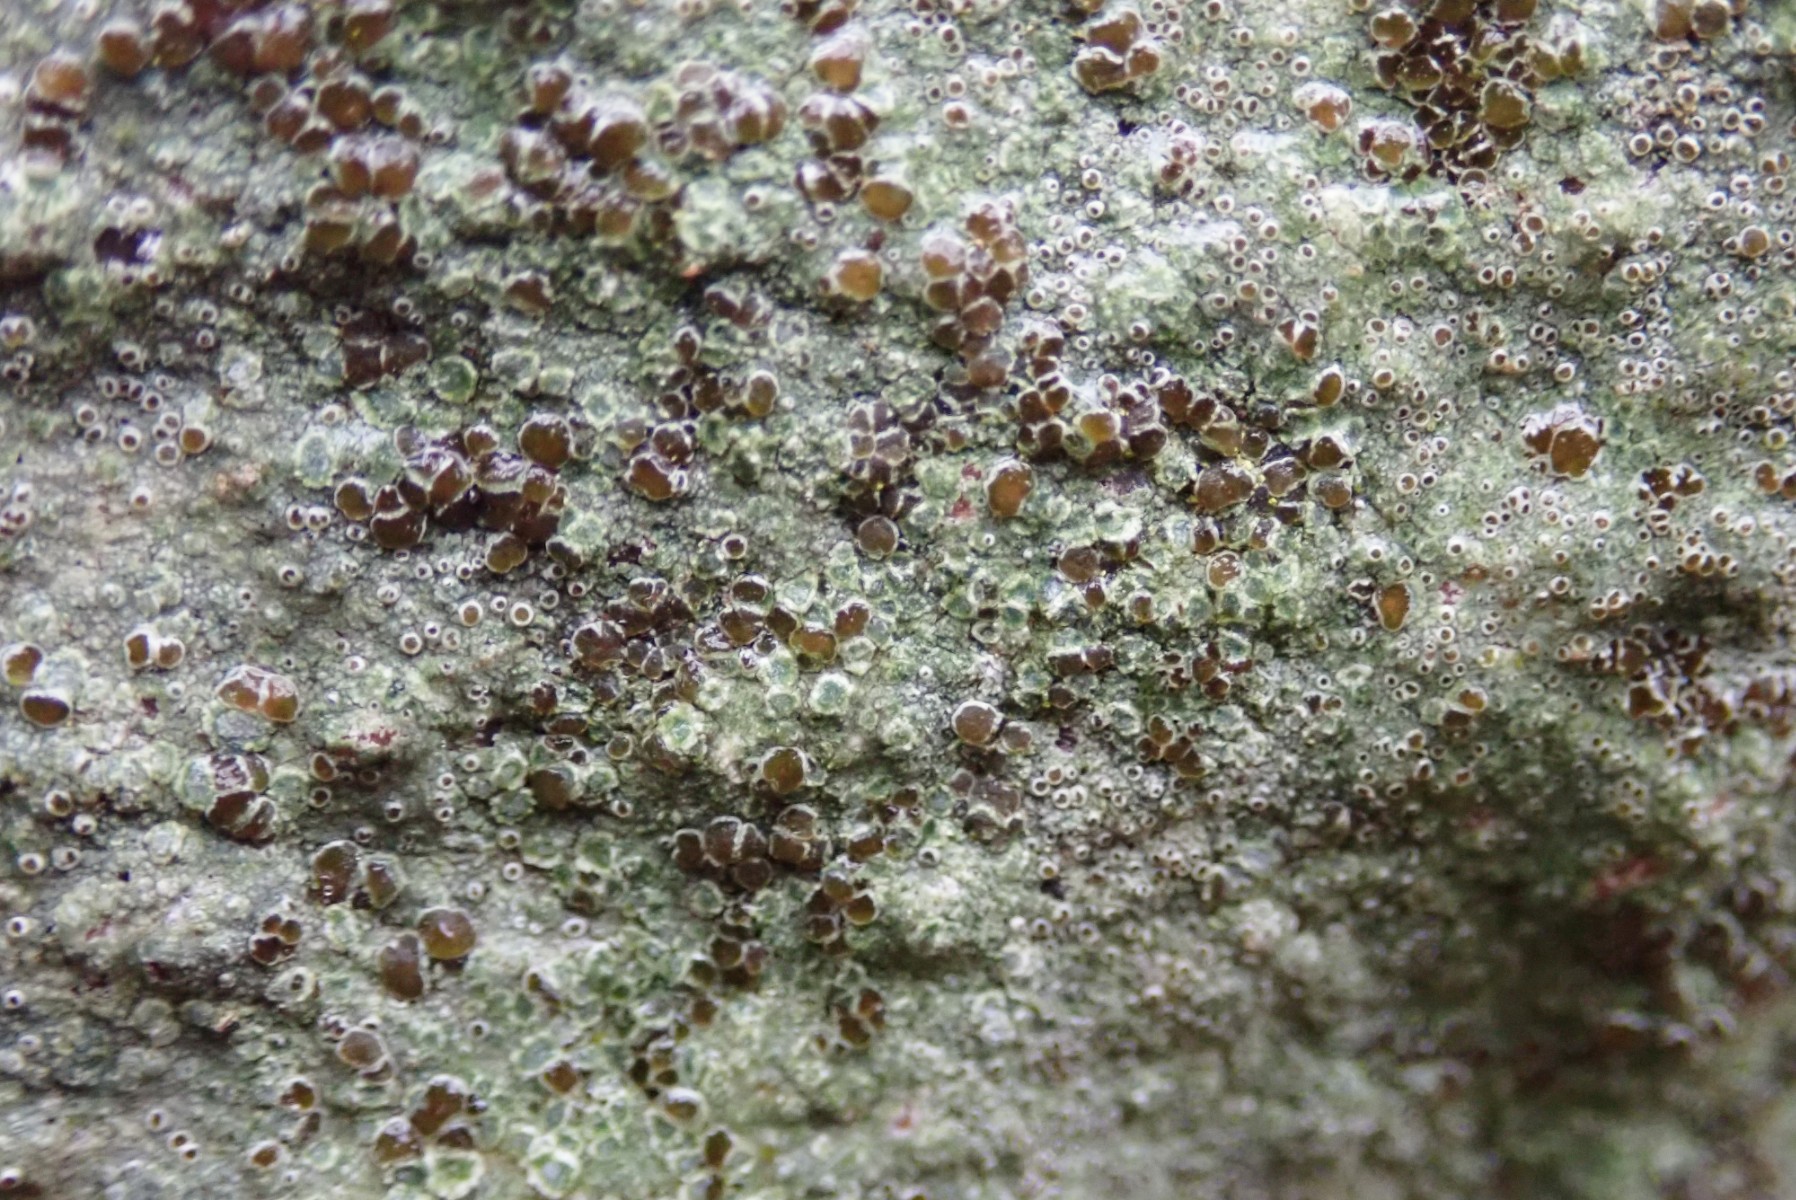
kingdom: Fungi
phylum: Ascomycota
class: Lecanoromycetes
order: Lecanorales
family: Lecanoraceae
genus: Lecanora
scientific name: Lecanora campestris
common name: mur-kantskivelav
